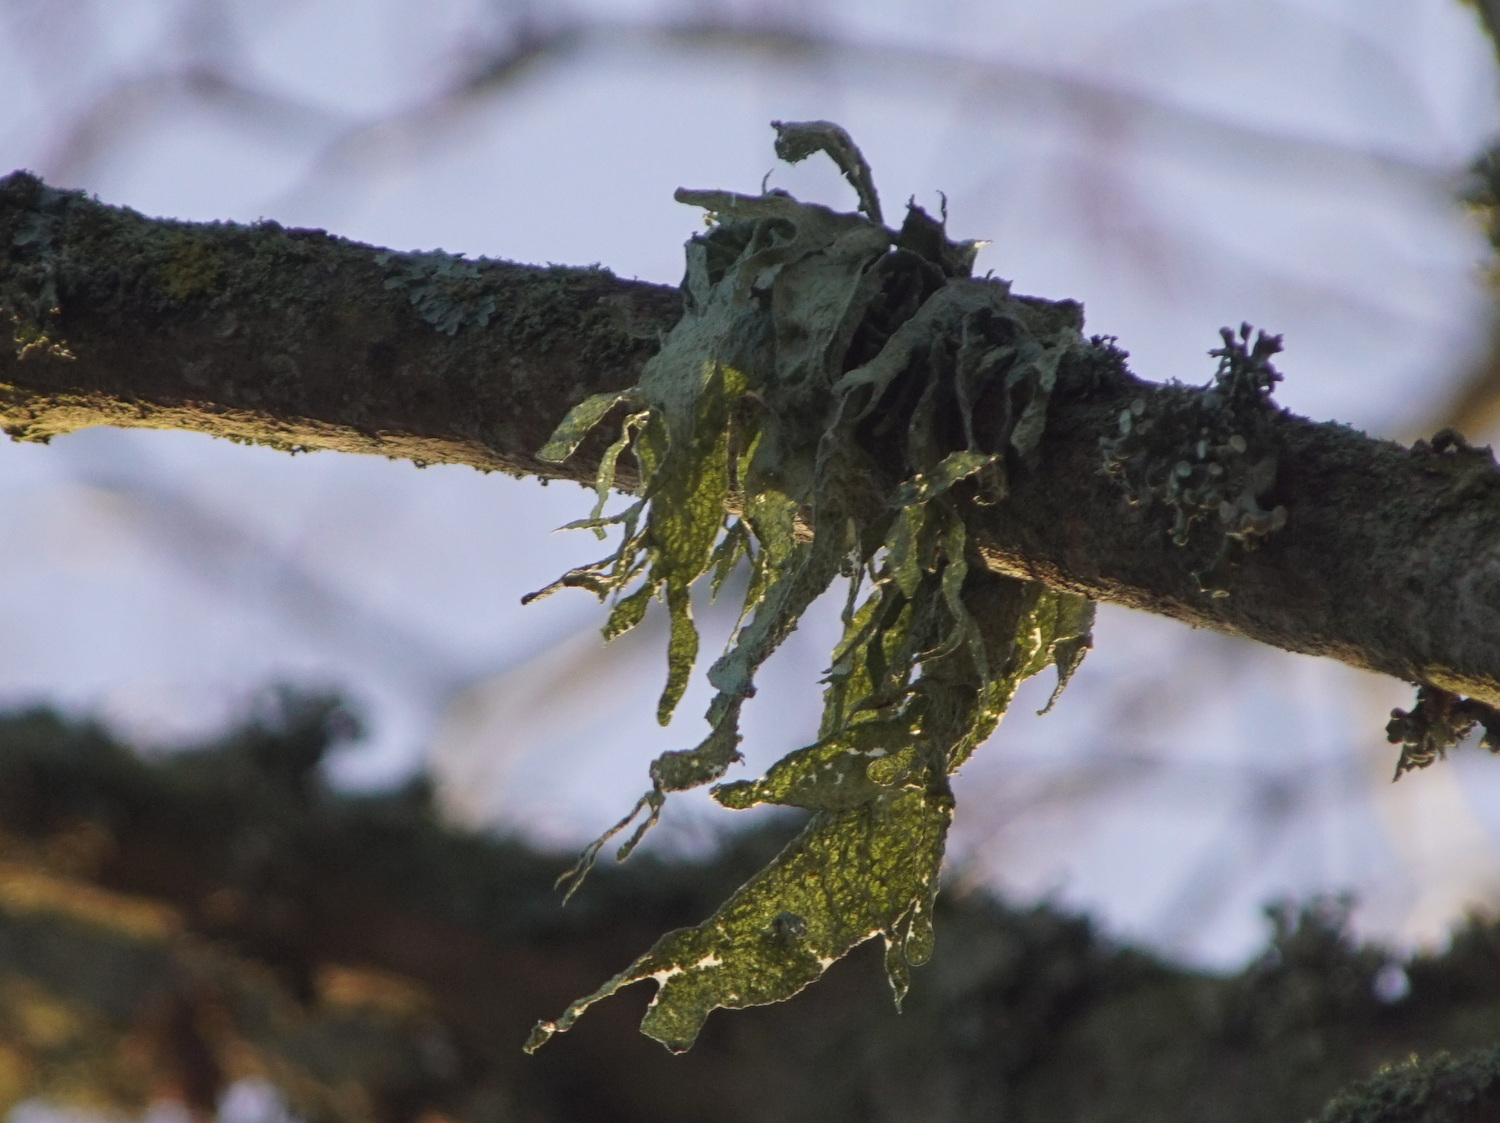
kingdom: Fungi
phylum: Ascomycota
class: Lecanoromycetes
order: Lecanorales
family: Ramalinaceae
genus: Ramalina
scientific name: Ramalina fraxinea
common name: stor grenlav
